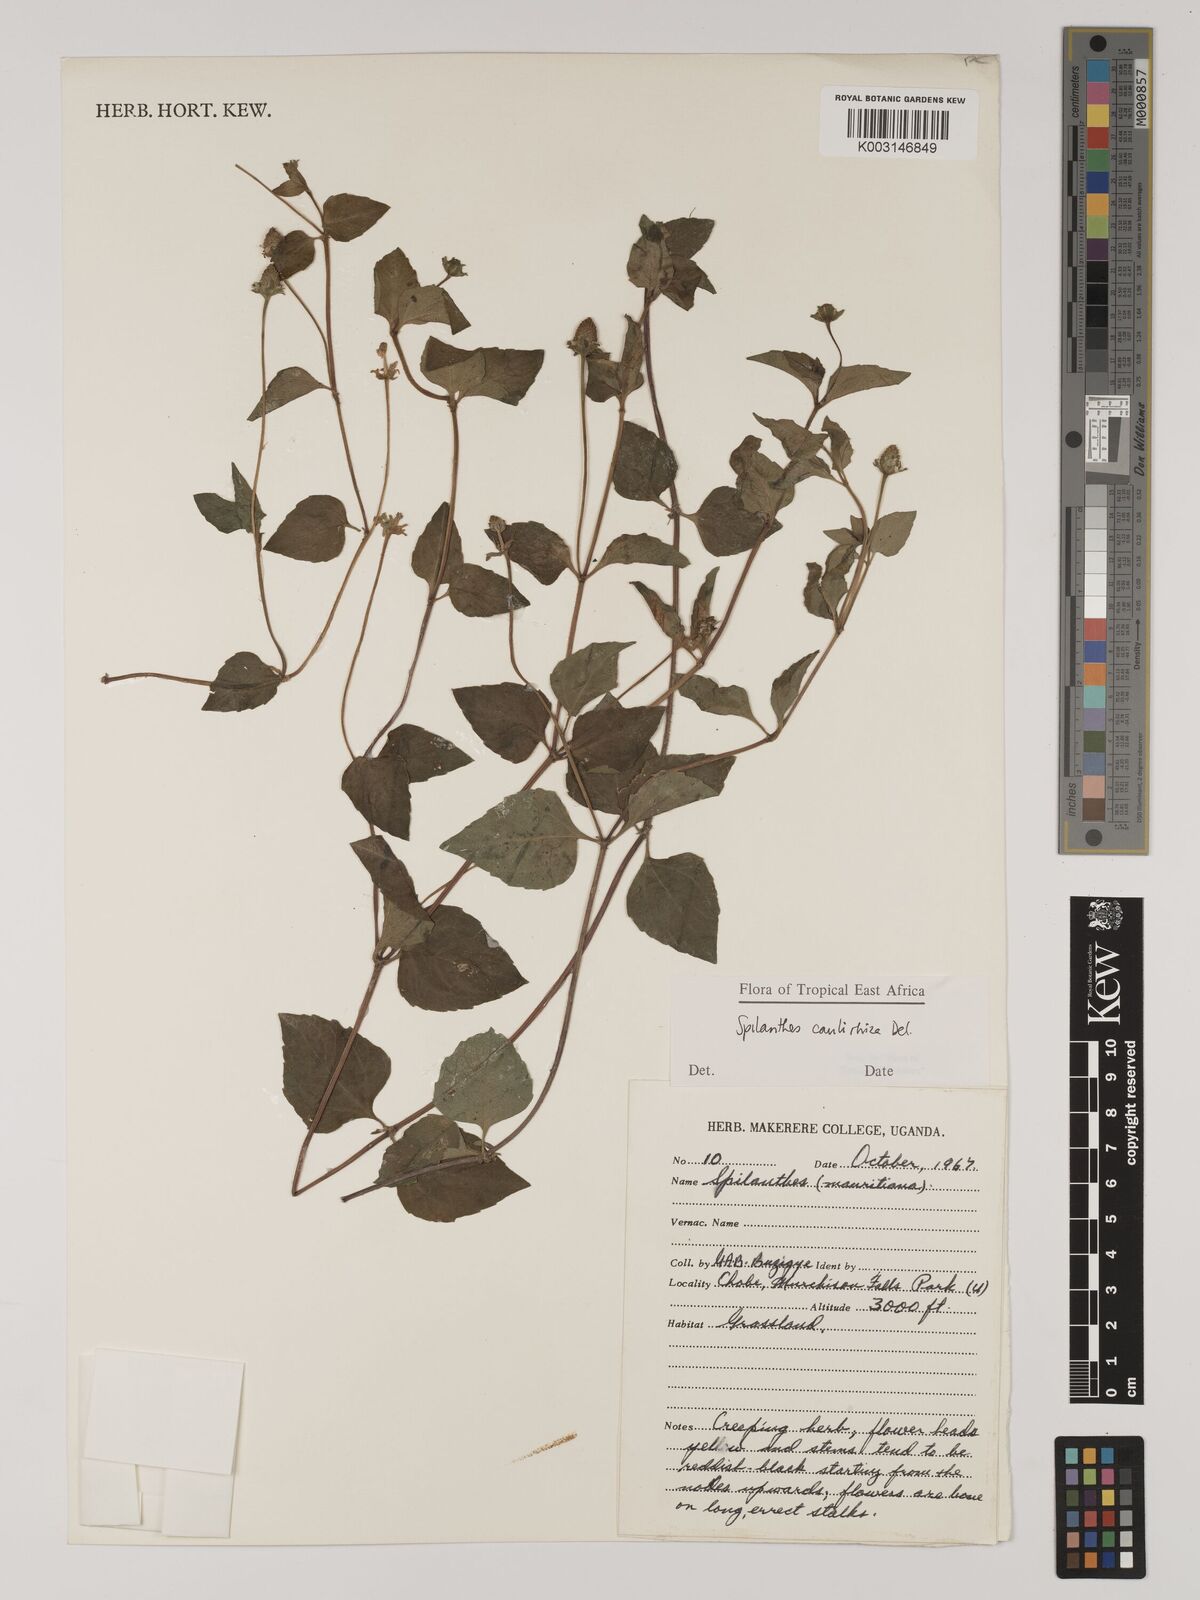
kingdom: Plantae
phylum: Tracheophyta
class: Magnoliopsida
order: Asterales
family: Asteraceae
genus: Acmella
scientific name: Acmella caulirhiza
